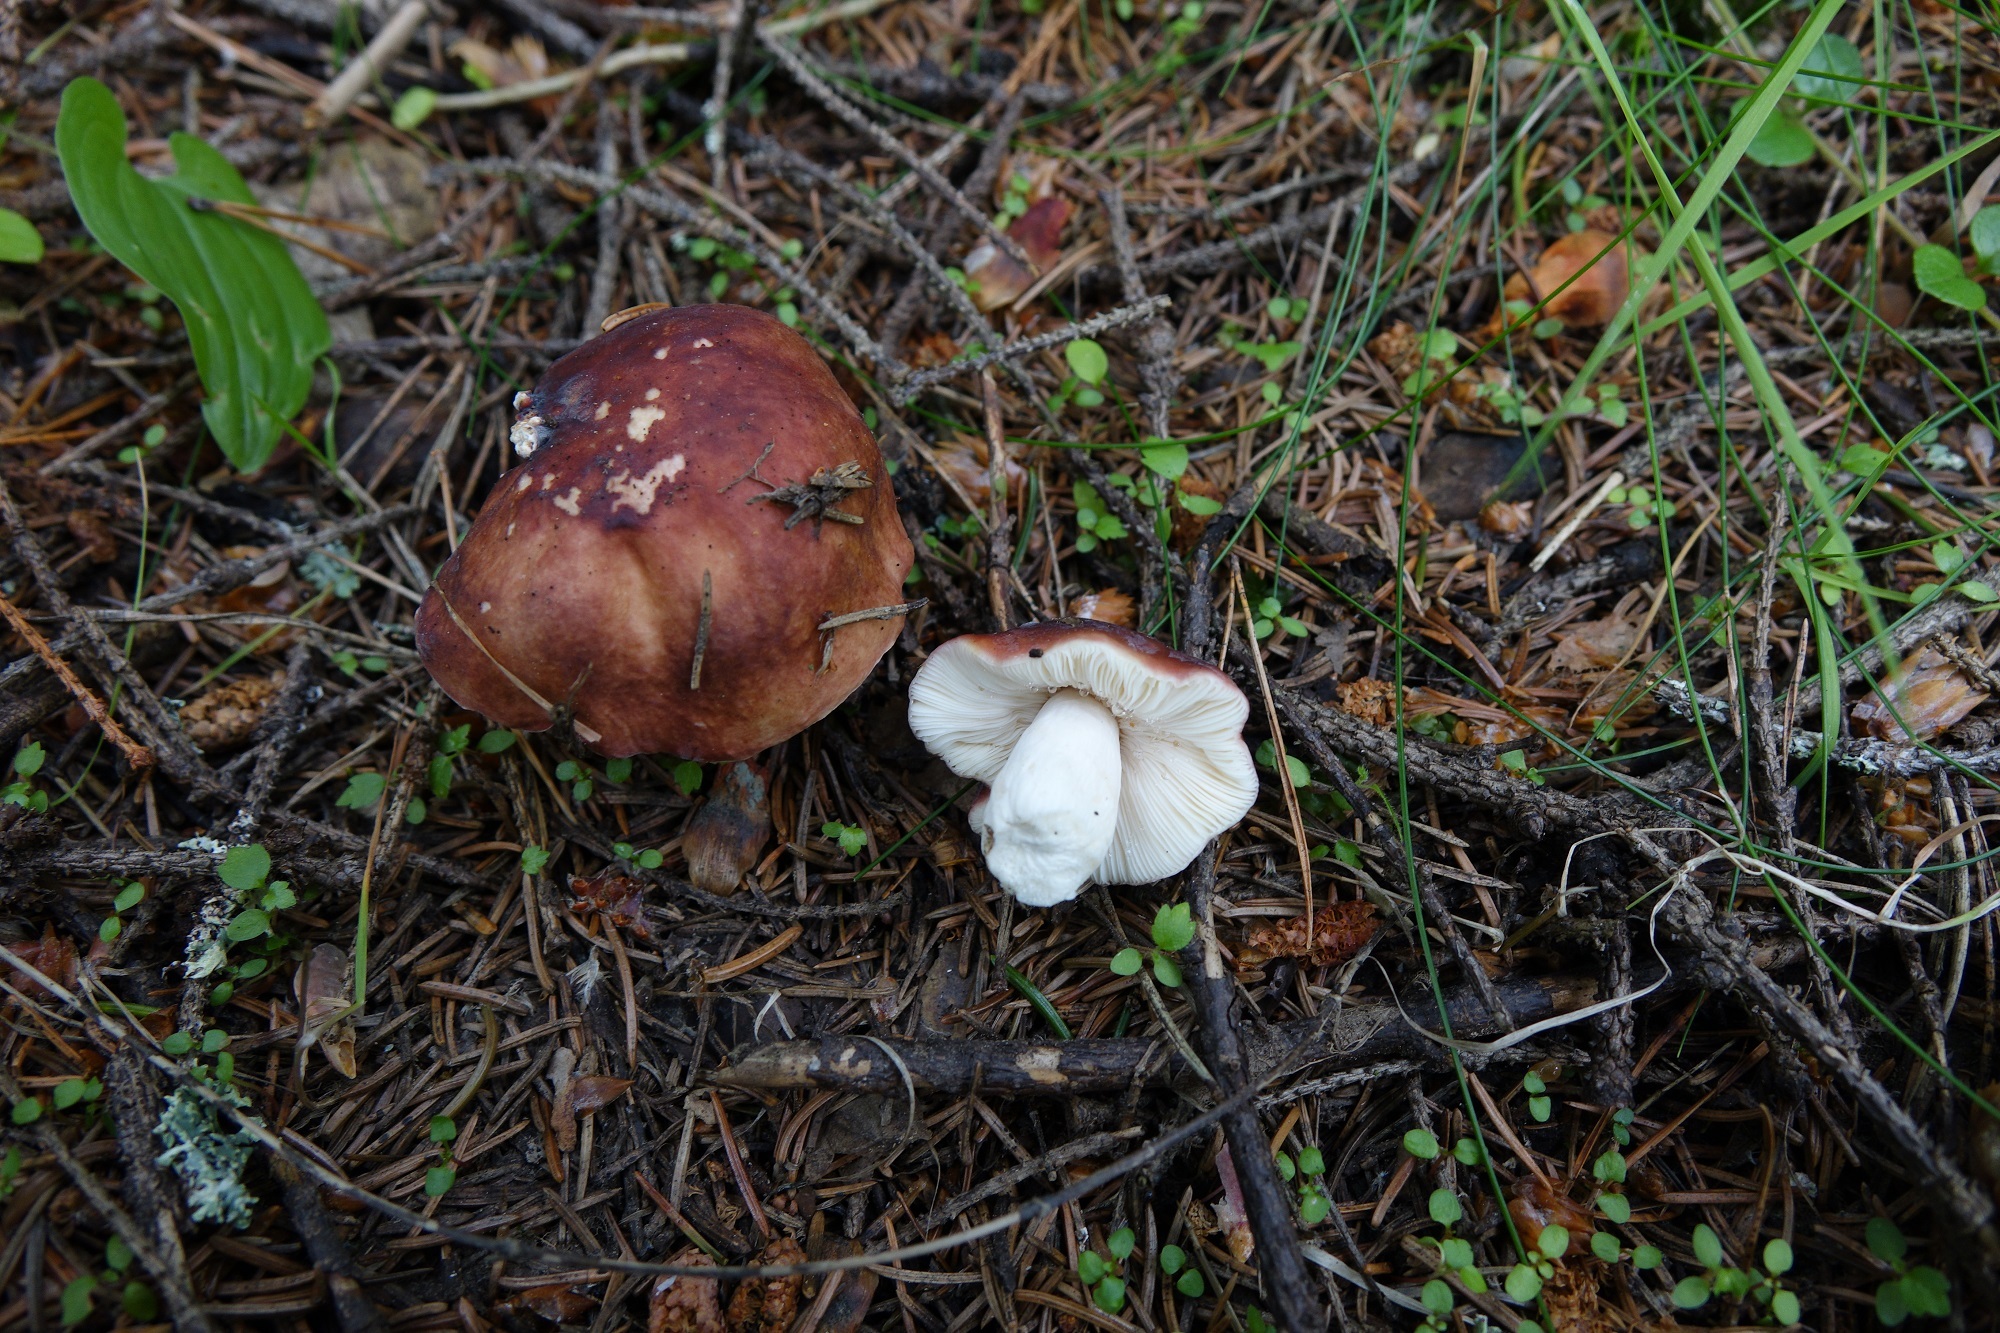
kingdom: Fungi
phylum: Basidiomycota
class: Agaricomycetes
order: Russulales
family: Russulaceae
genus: Russula
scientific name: Russula
